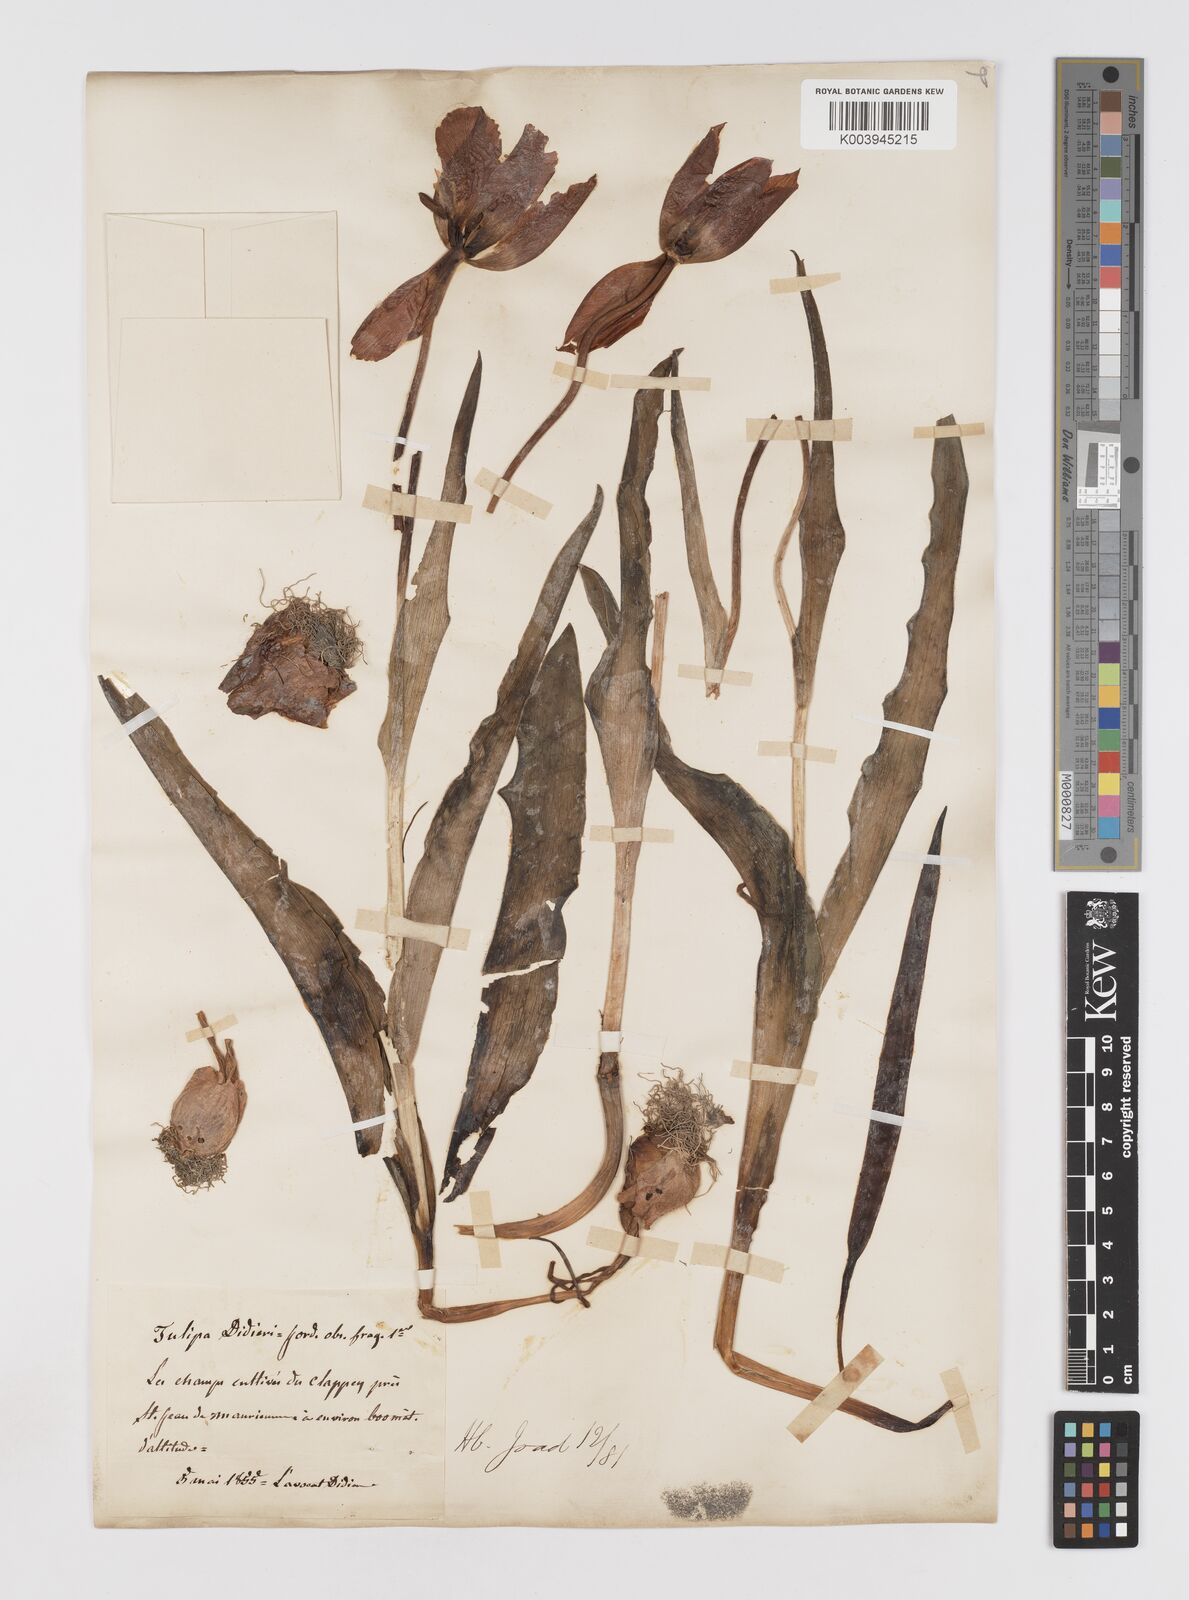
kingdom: Plantae
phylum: Tracheophyta
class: Liliopsida
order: Liliales
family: Liliaceae
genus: Tulipa
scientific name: Tulipa gesneriana
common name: Garden tulip
